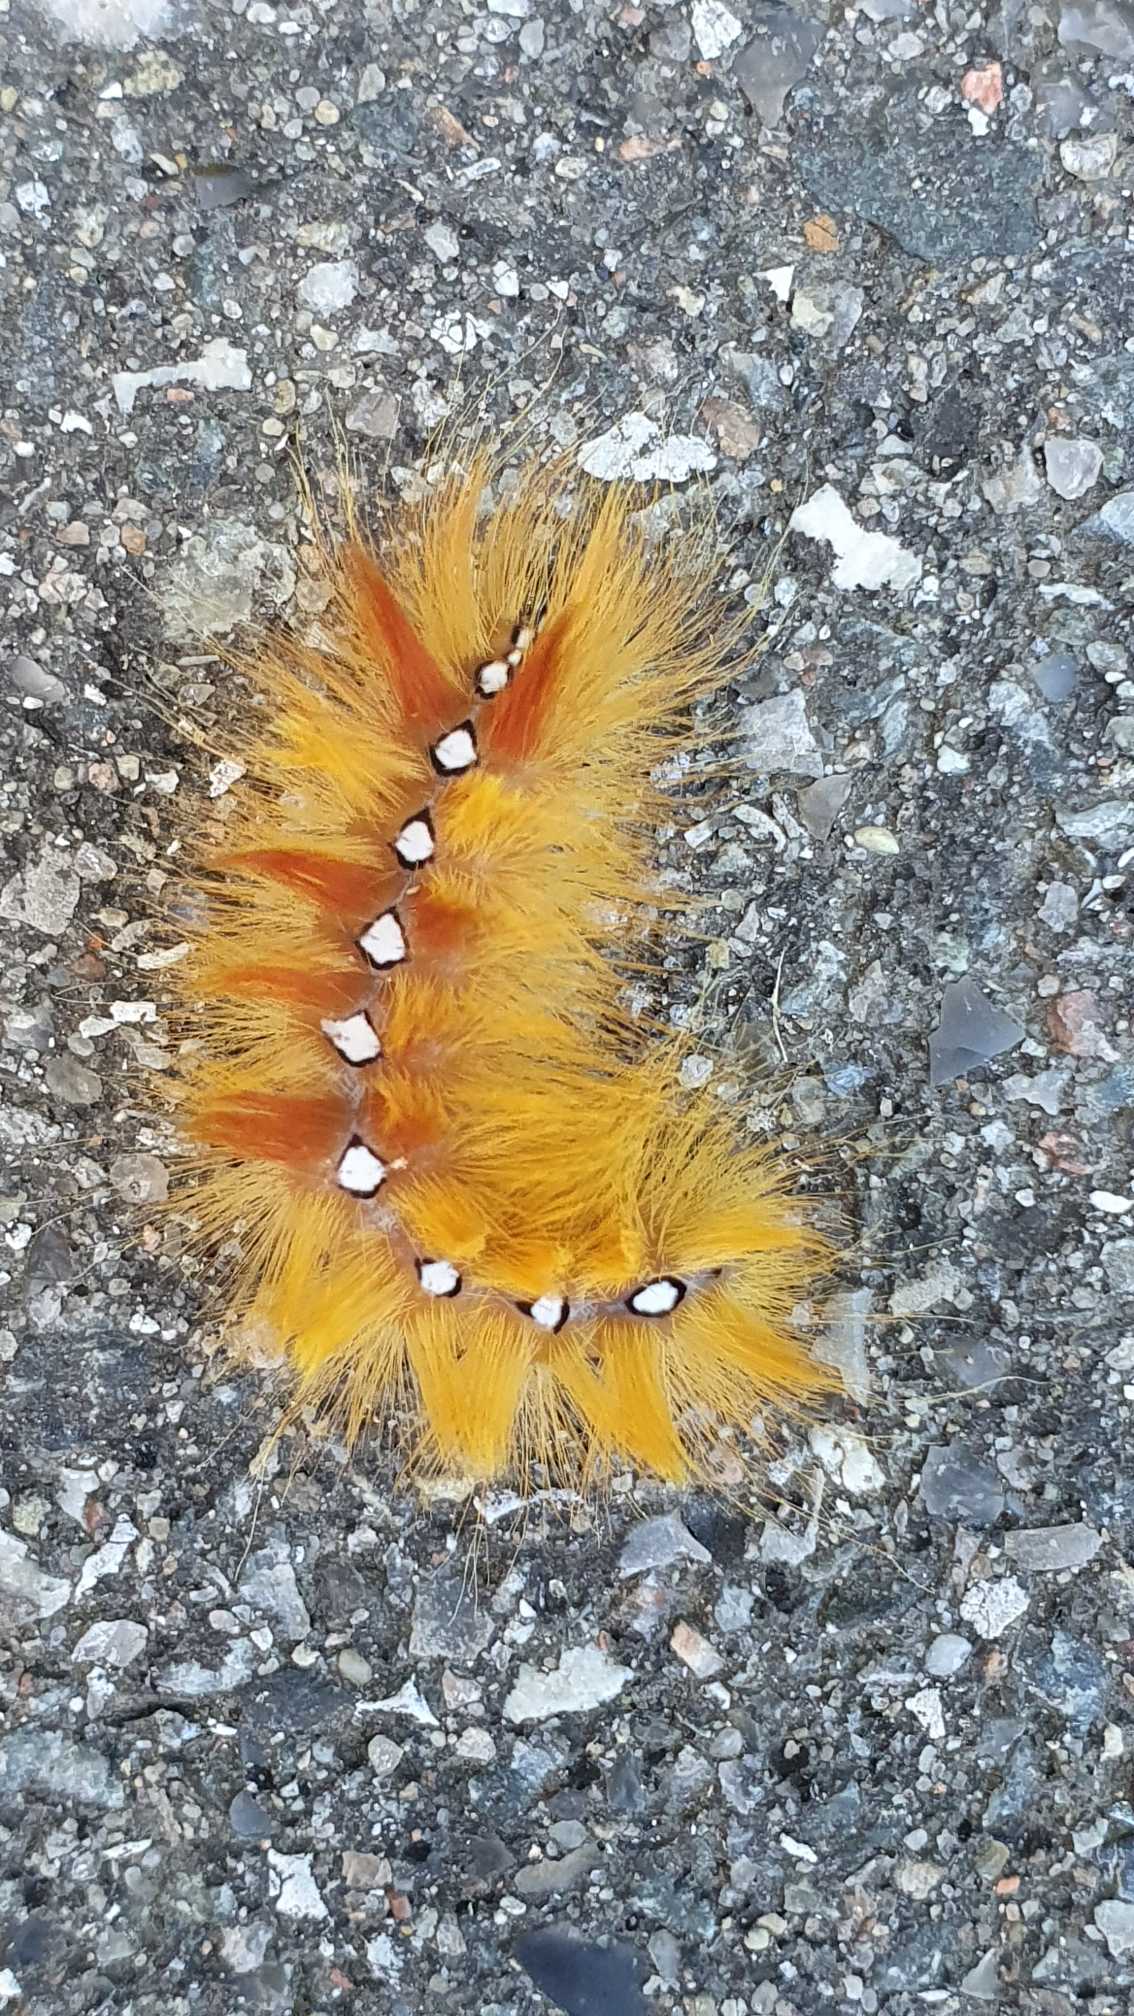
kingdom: Animalia
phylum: Arthropoda
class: Insecta
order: Lepidoptera
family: Noctuidae
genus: Acronicta
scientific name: Acronicta aceris
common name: Ahornugle
